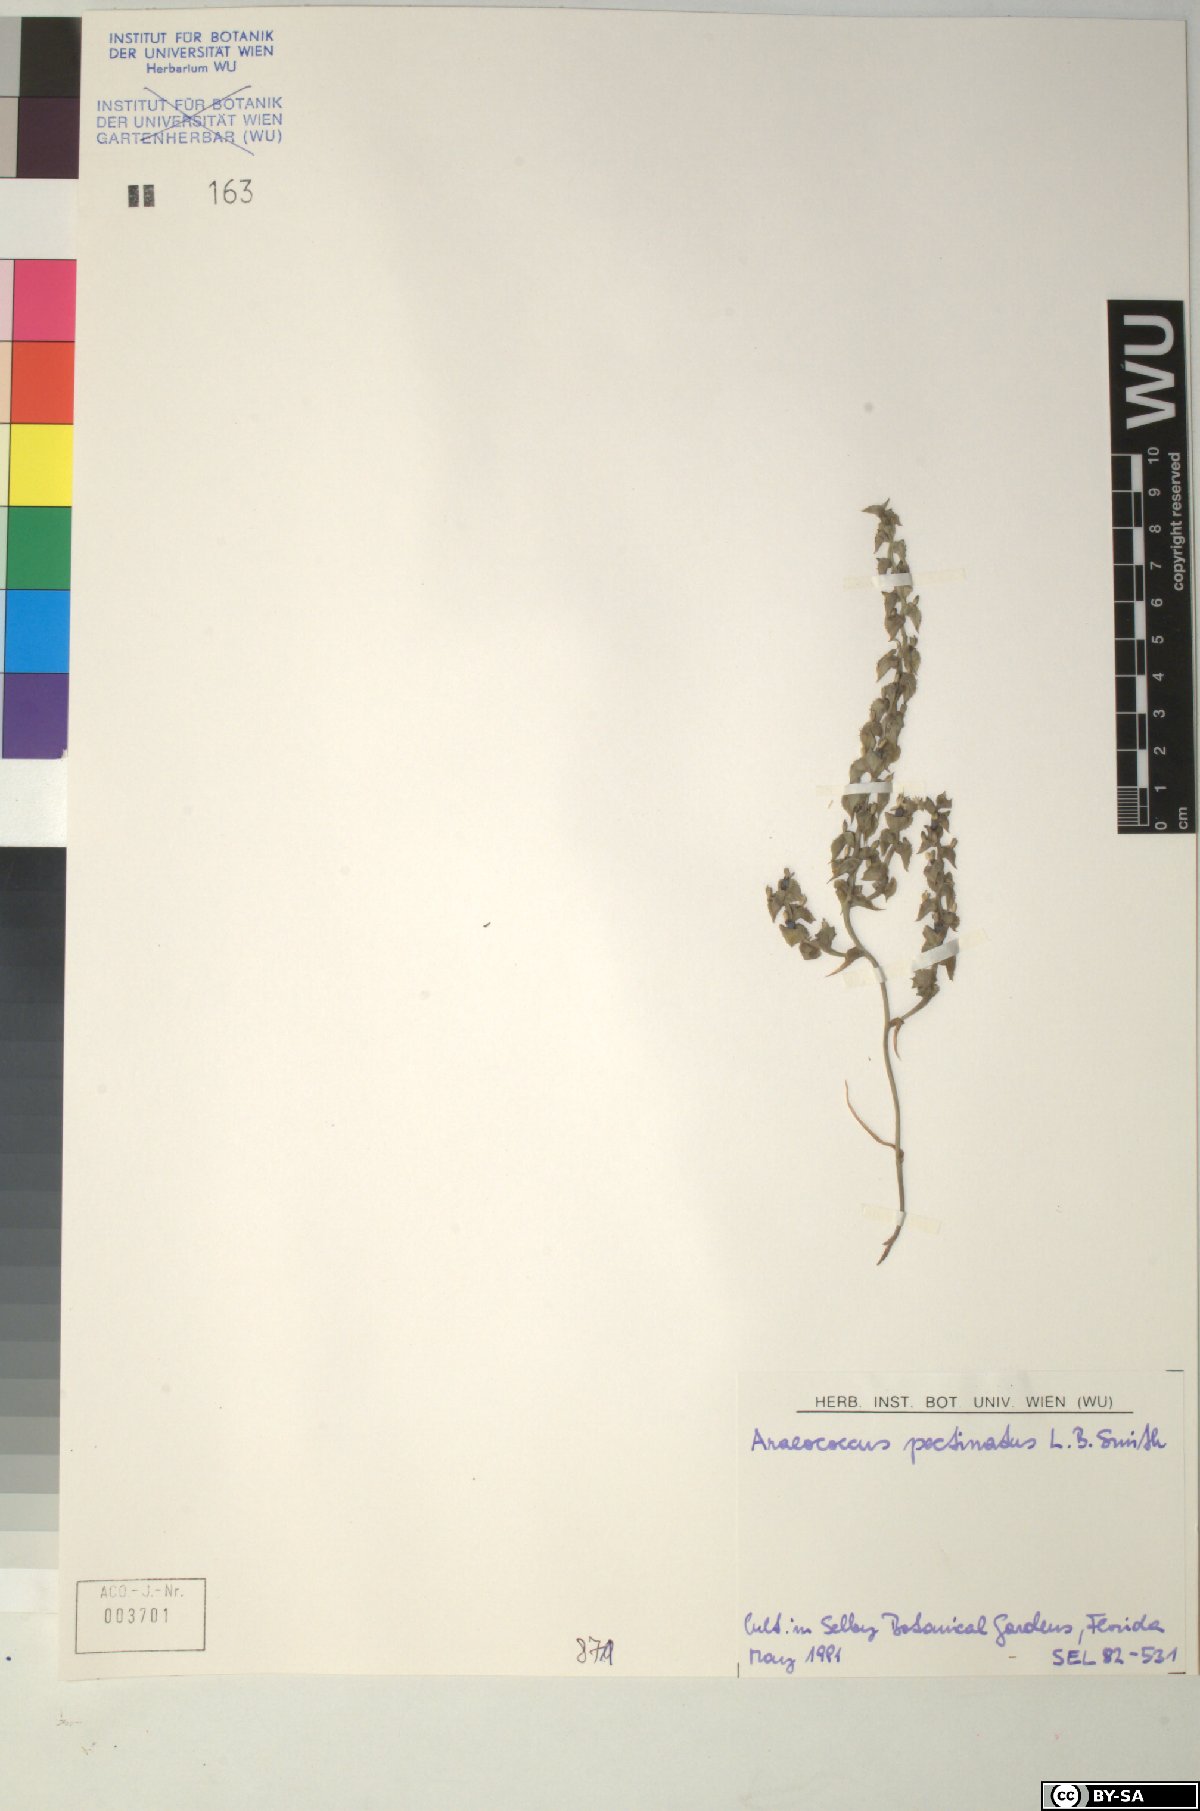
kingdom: Plantae
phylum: Tracheophyta
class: Liliopsida
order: Poales
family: Bromeliaceae
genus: Araeococcus
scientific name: Araeococcus pectinatus
